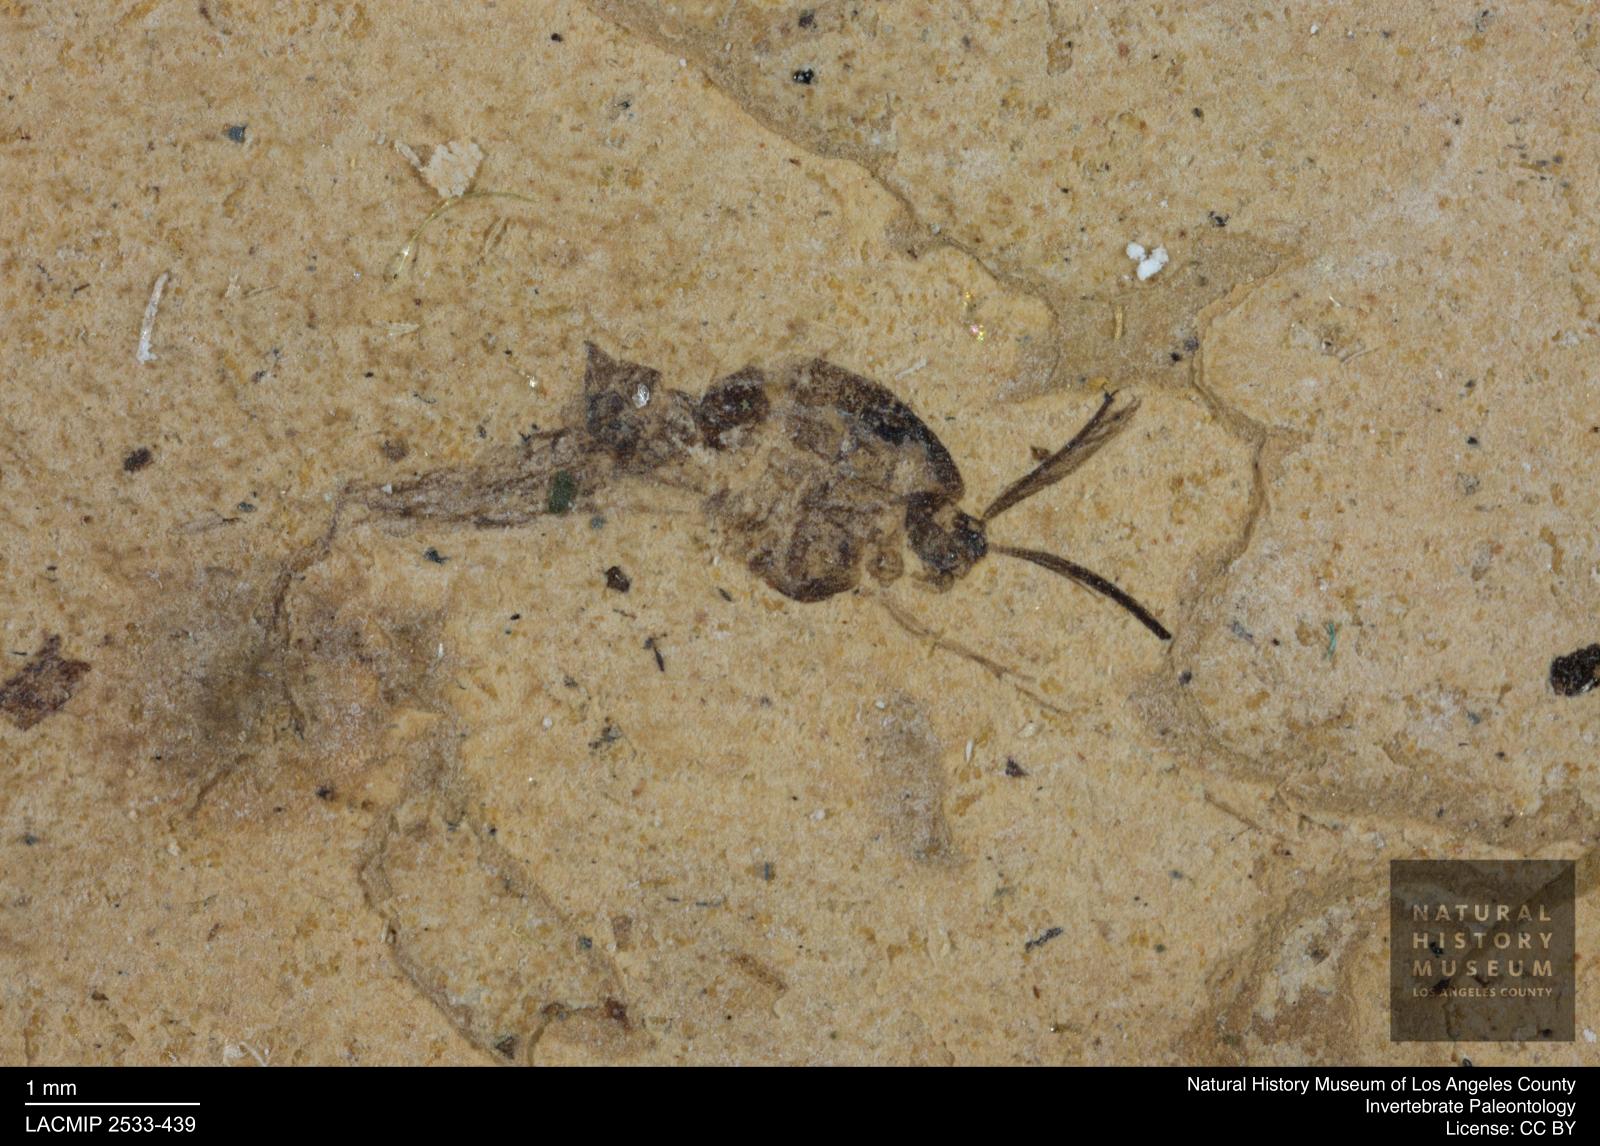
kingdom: Animalia
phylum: Arthropoda
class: Insecta
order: Diptera
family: Chironomidae
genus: Tanypus
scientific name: Tanypus thienemanni
